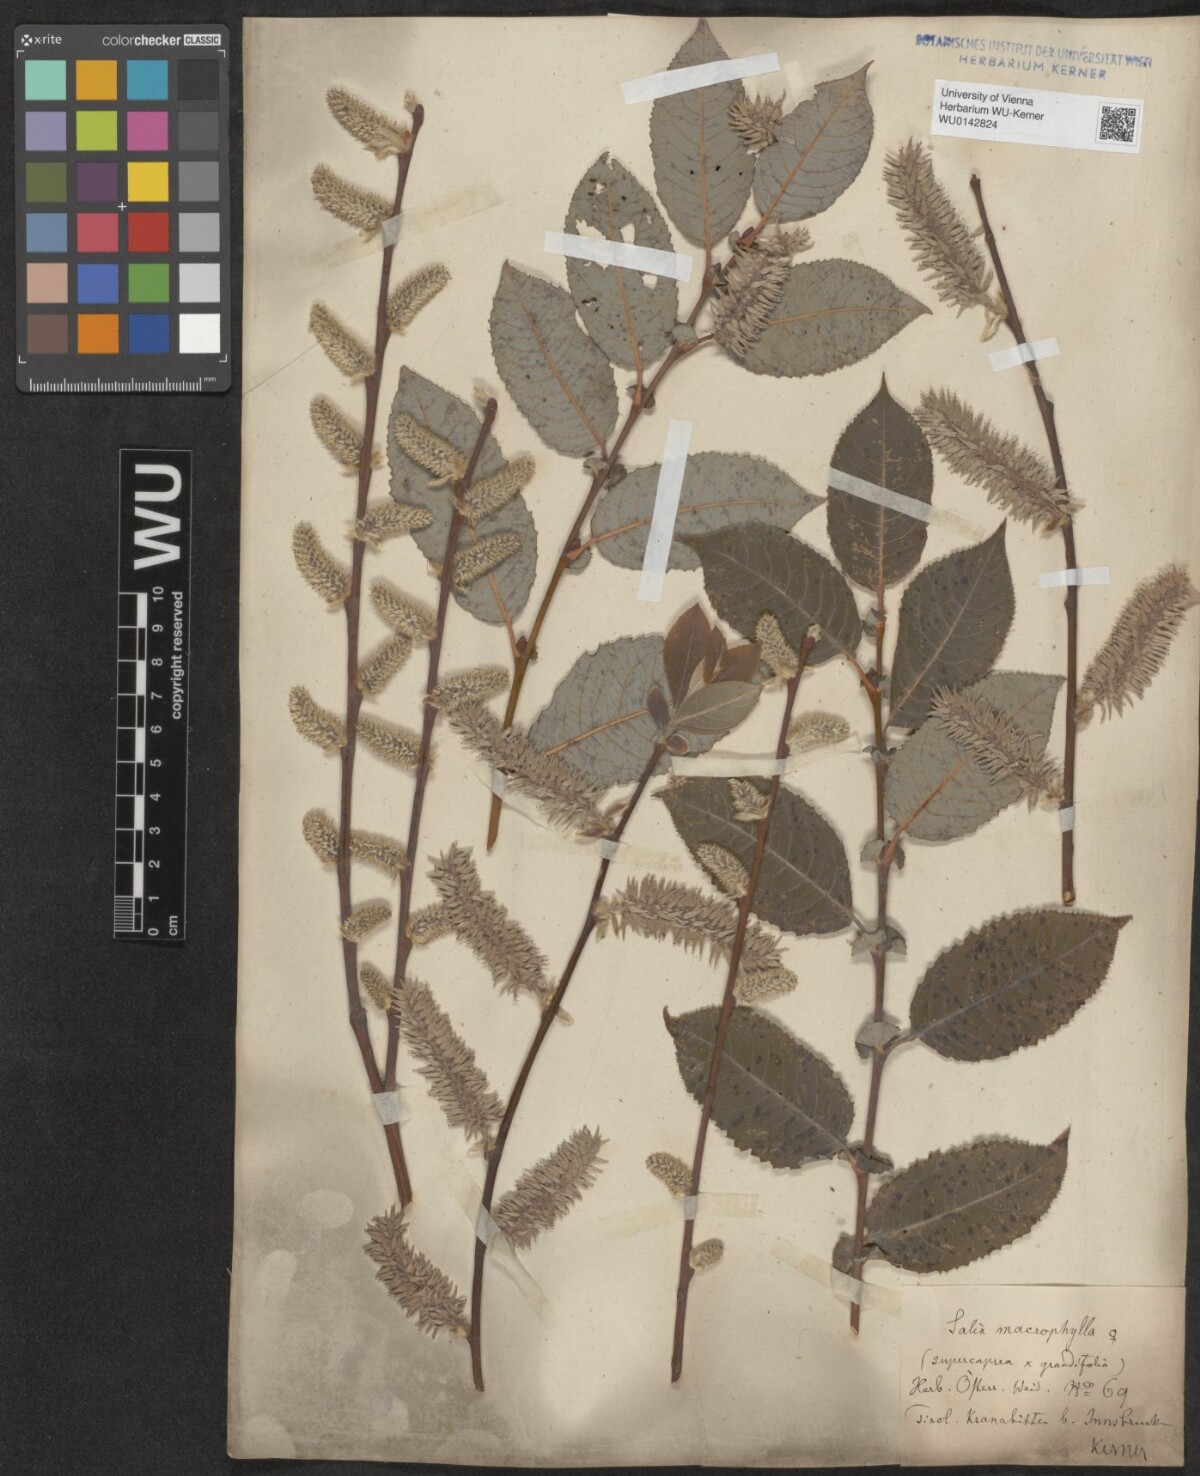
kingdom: Plantae
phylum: Tracheophyta
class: Magnoliopsida
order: Malpighiales
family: Salicaceae
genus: Salix
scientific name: Salix macrophylla
